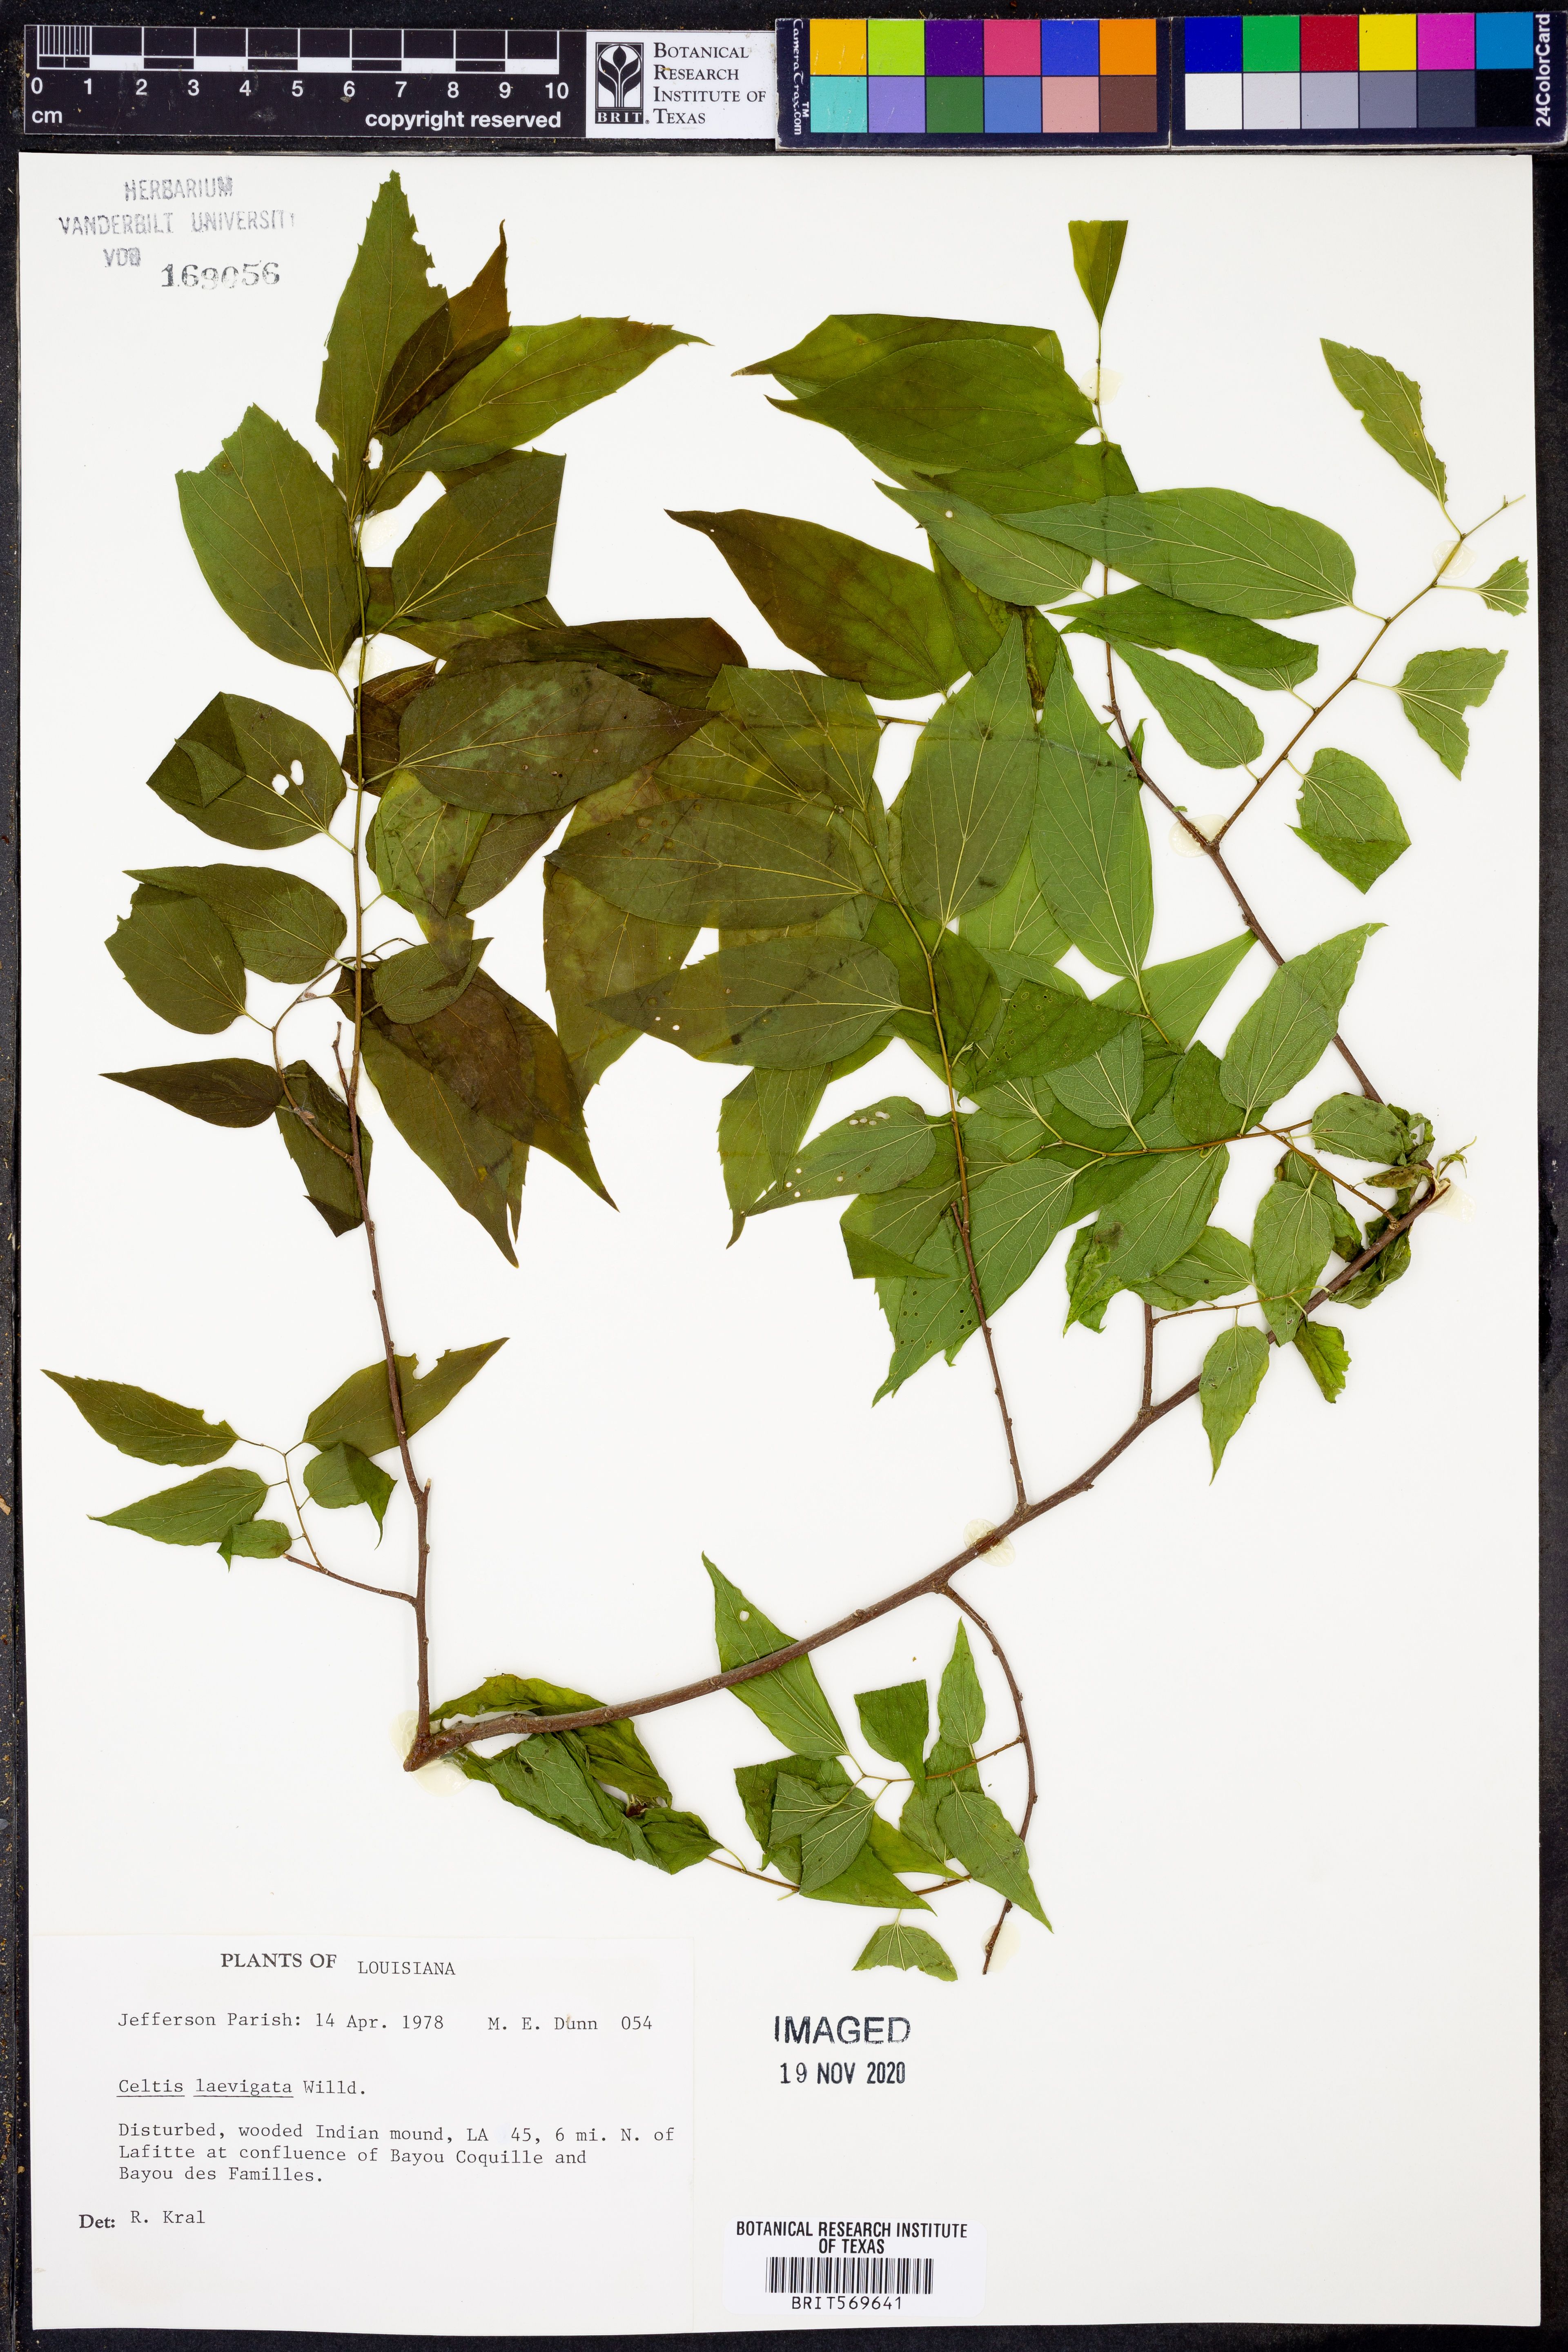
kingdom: Plantae
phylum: Tracheophyta
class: Magnoliopsida
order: Rosales
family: Cannabaceae
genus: Celtis
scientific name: Celtis laevigata
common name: Sugarberry
